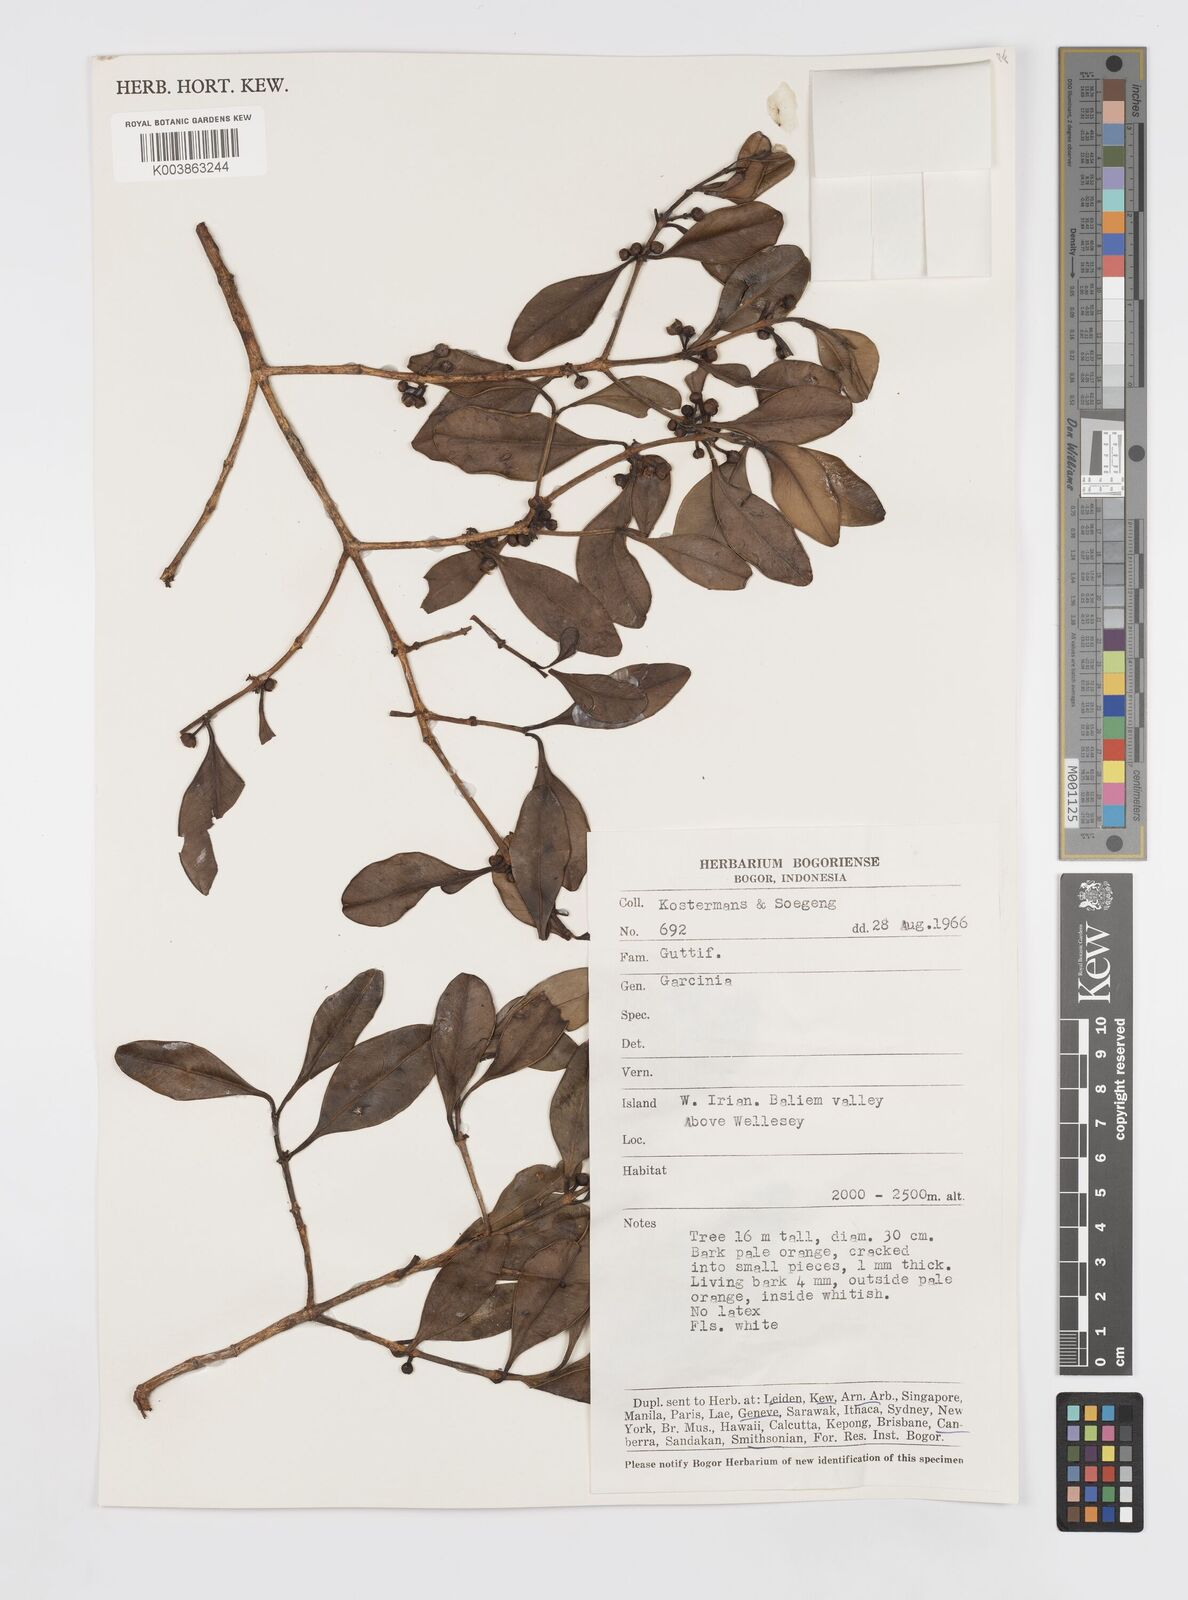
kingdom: Plantae
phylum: Tracheophyta
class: Magnoliopsida
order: Malpighiales
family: Clusiaceae
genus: Garcinia
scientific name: Garcinia
